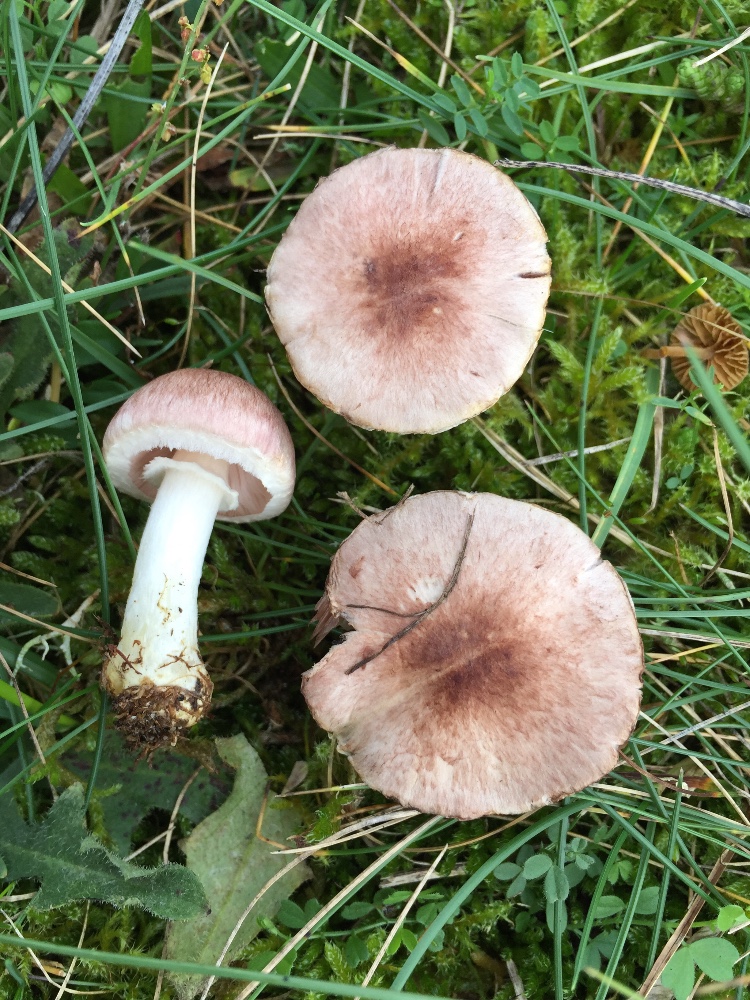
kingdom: Fungi
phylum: Basidiomycota
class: Agaricomycetes
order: Agaricales
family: Agaricaceae
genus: Agaricus
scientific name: Agaricus dulcidulus
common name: blegrød champignon
